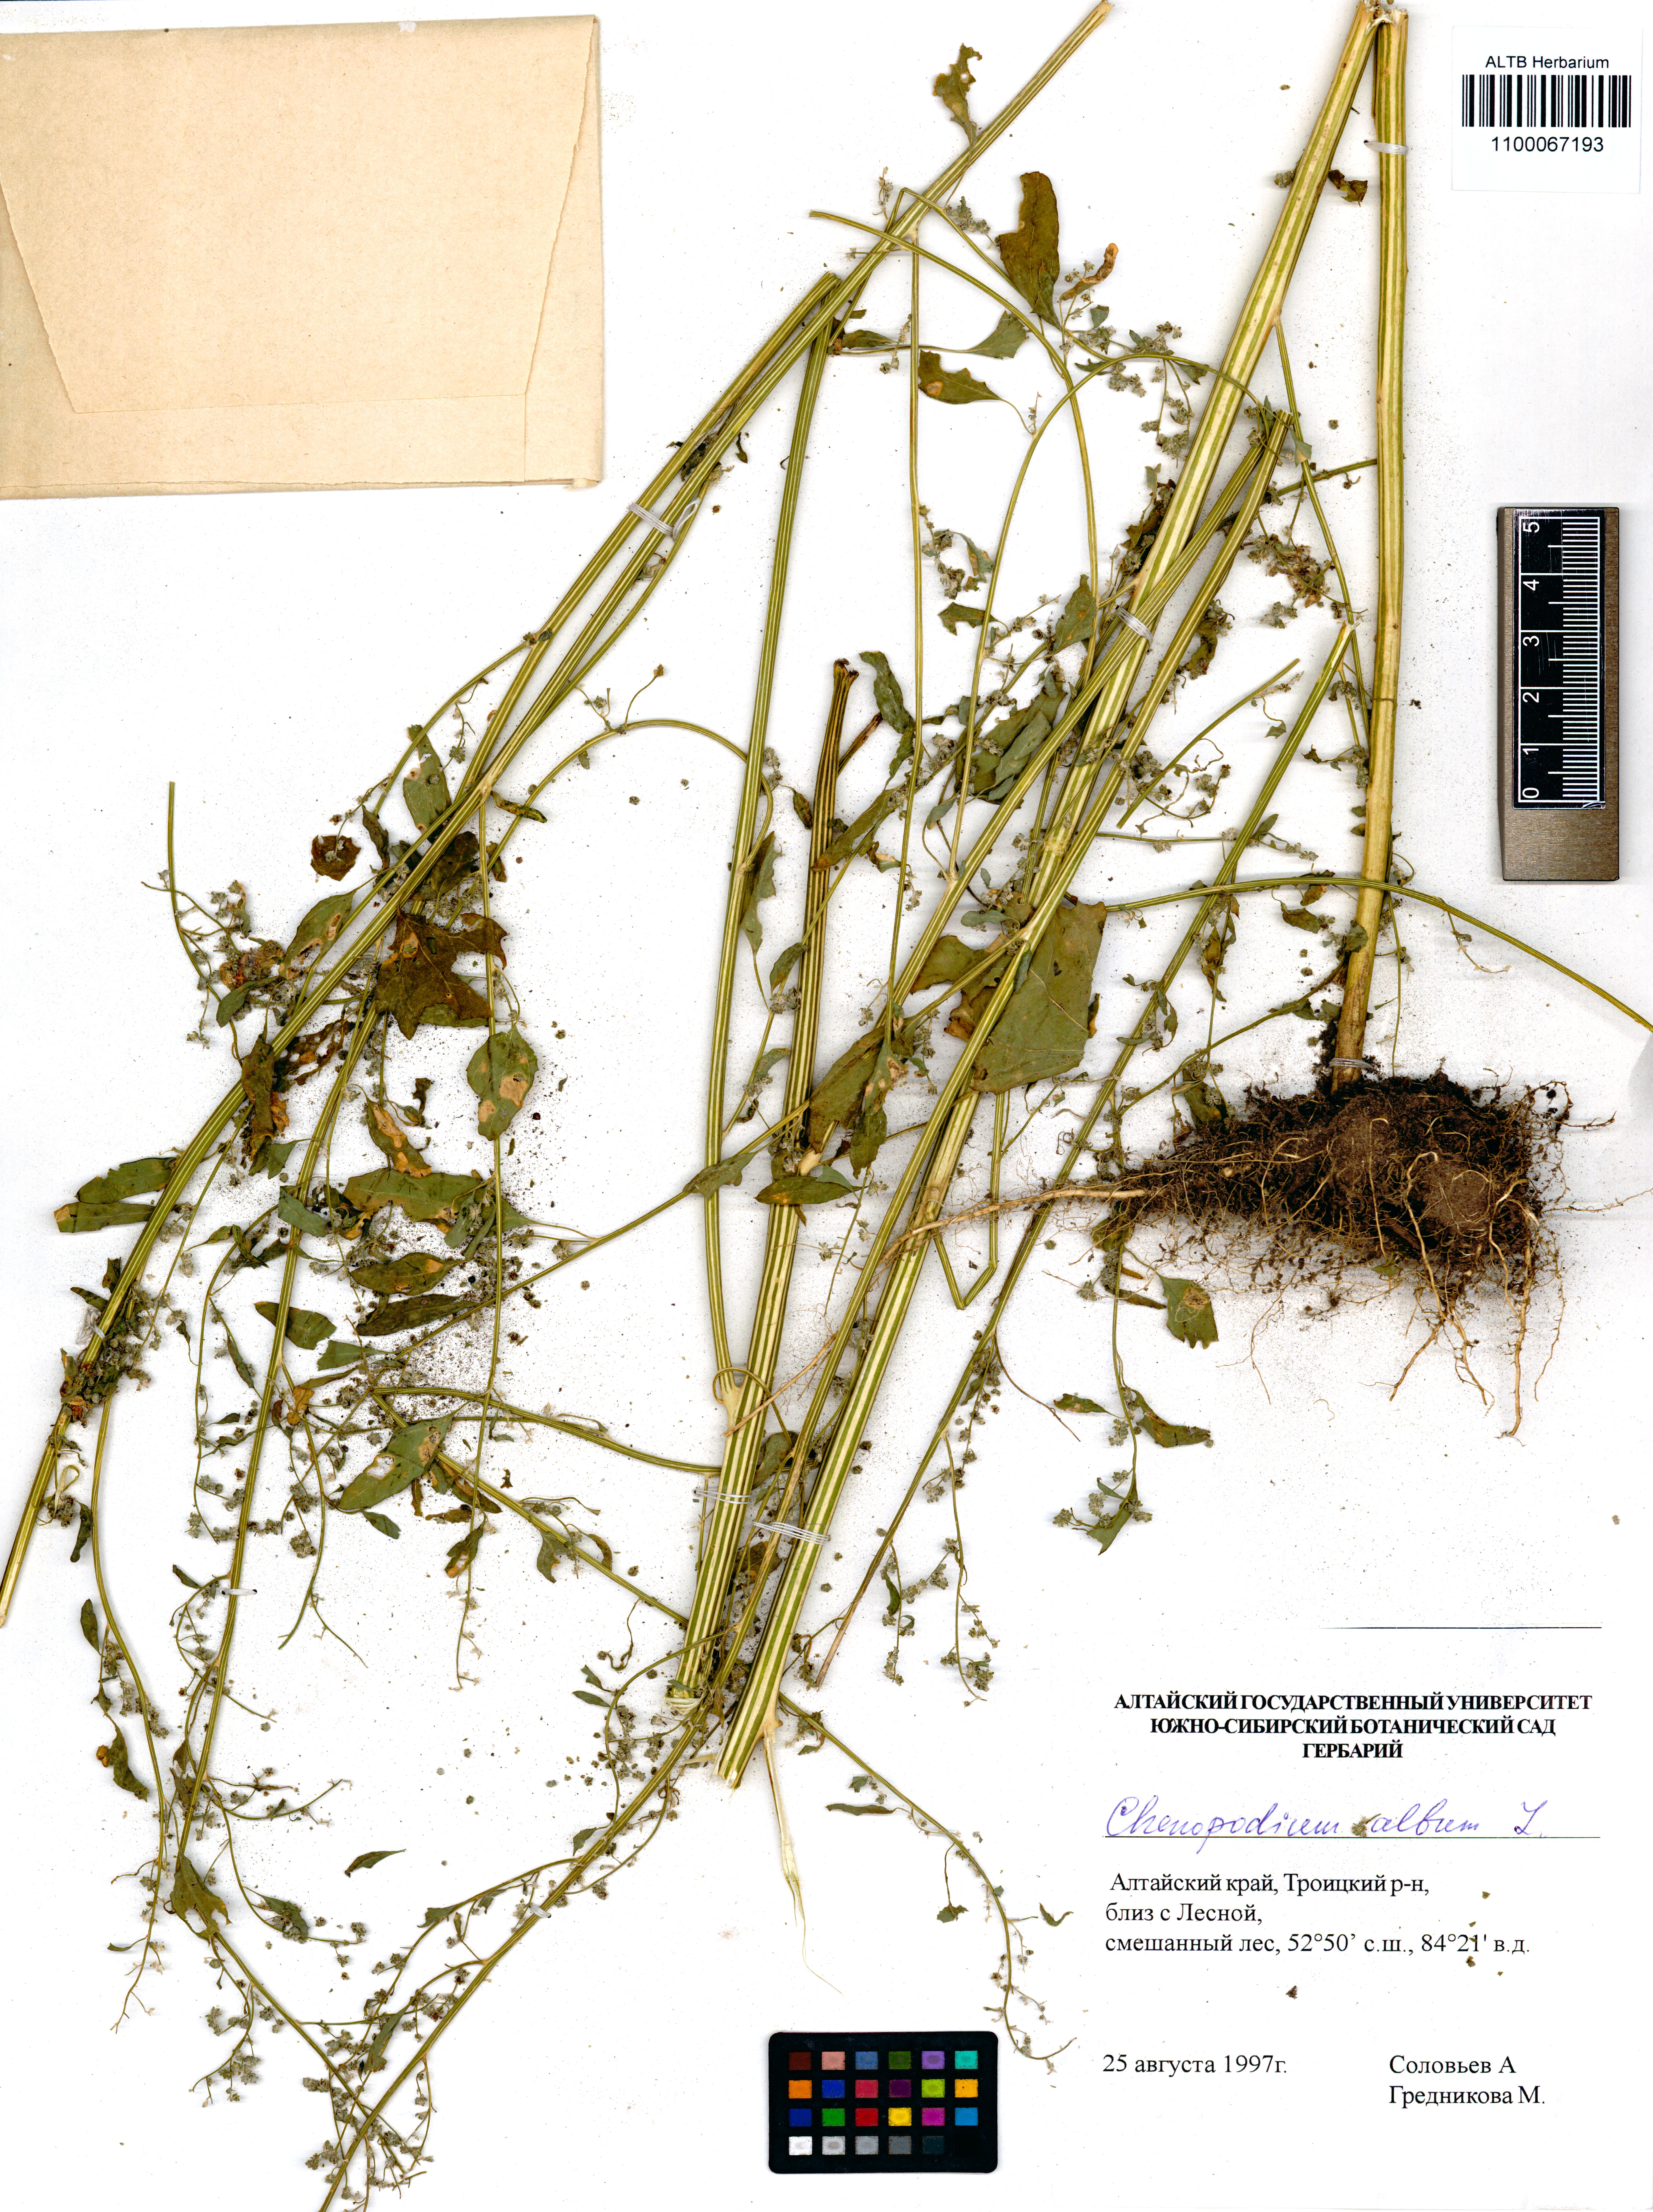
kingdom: Plantae
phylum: Tracheophyta
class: Magnoliopsida
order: Caryophyllales
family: Amaranthaceae
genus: Chenopodium
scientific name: Chenopodium album
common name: Fat-hen
